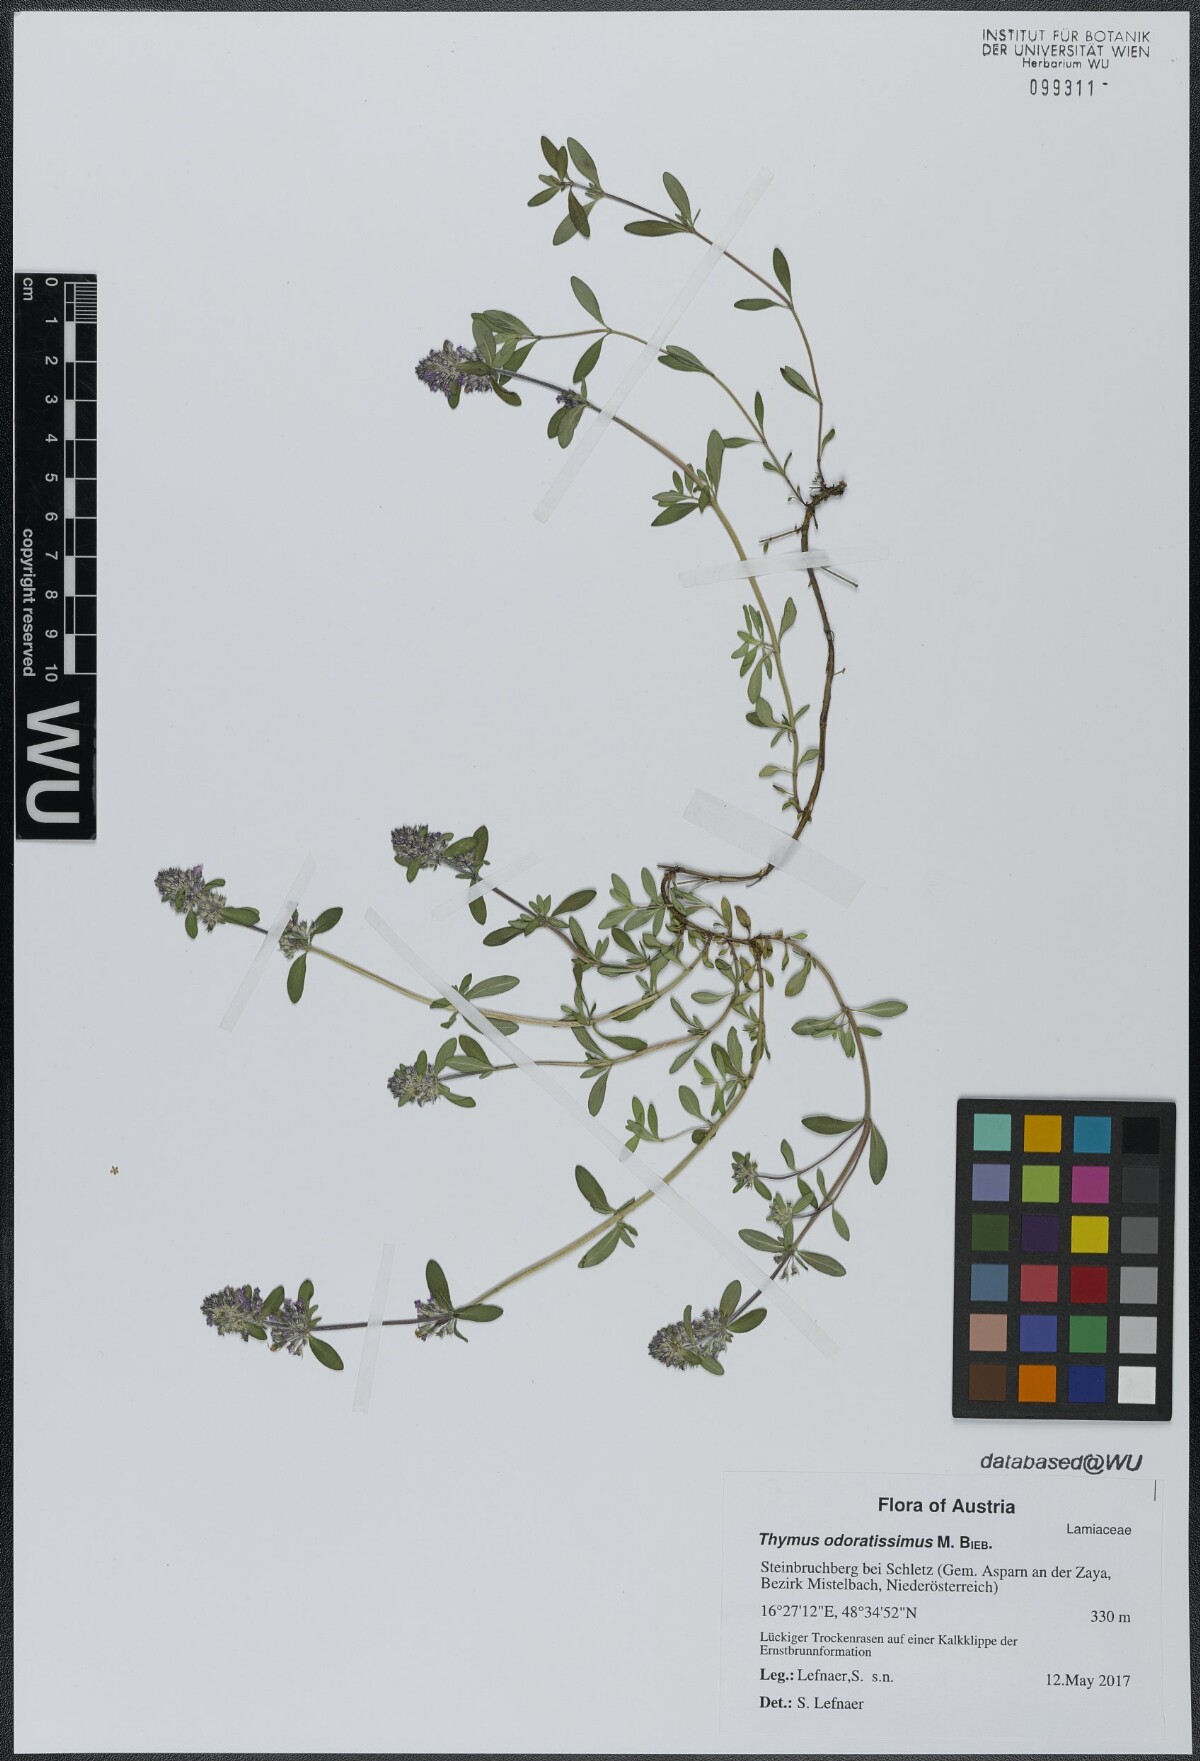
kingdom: Plantae
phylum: Tracheophyta
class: Magnoliopsida
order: Lamiales
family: Lamiaceae
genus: Thymus
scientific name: Thymus odoratissimus
